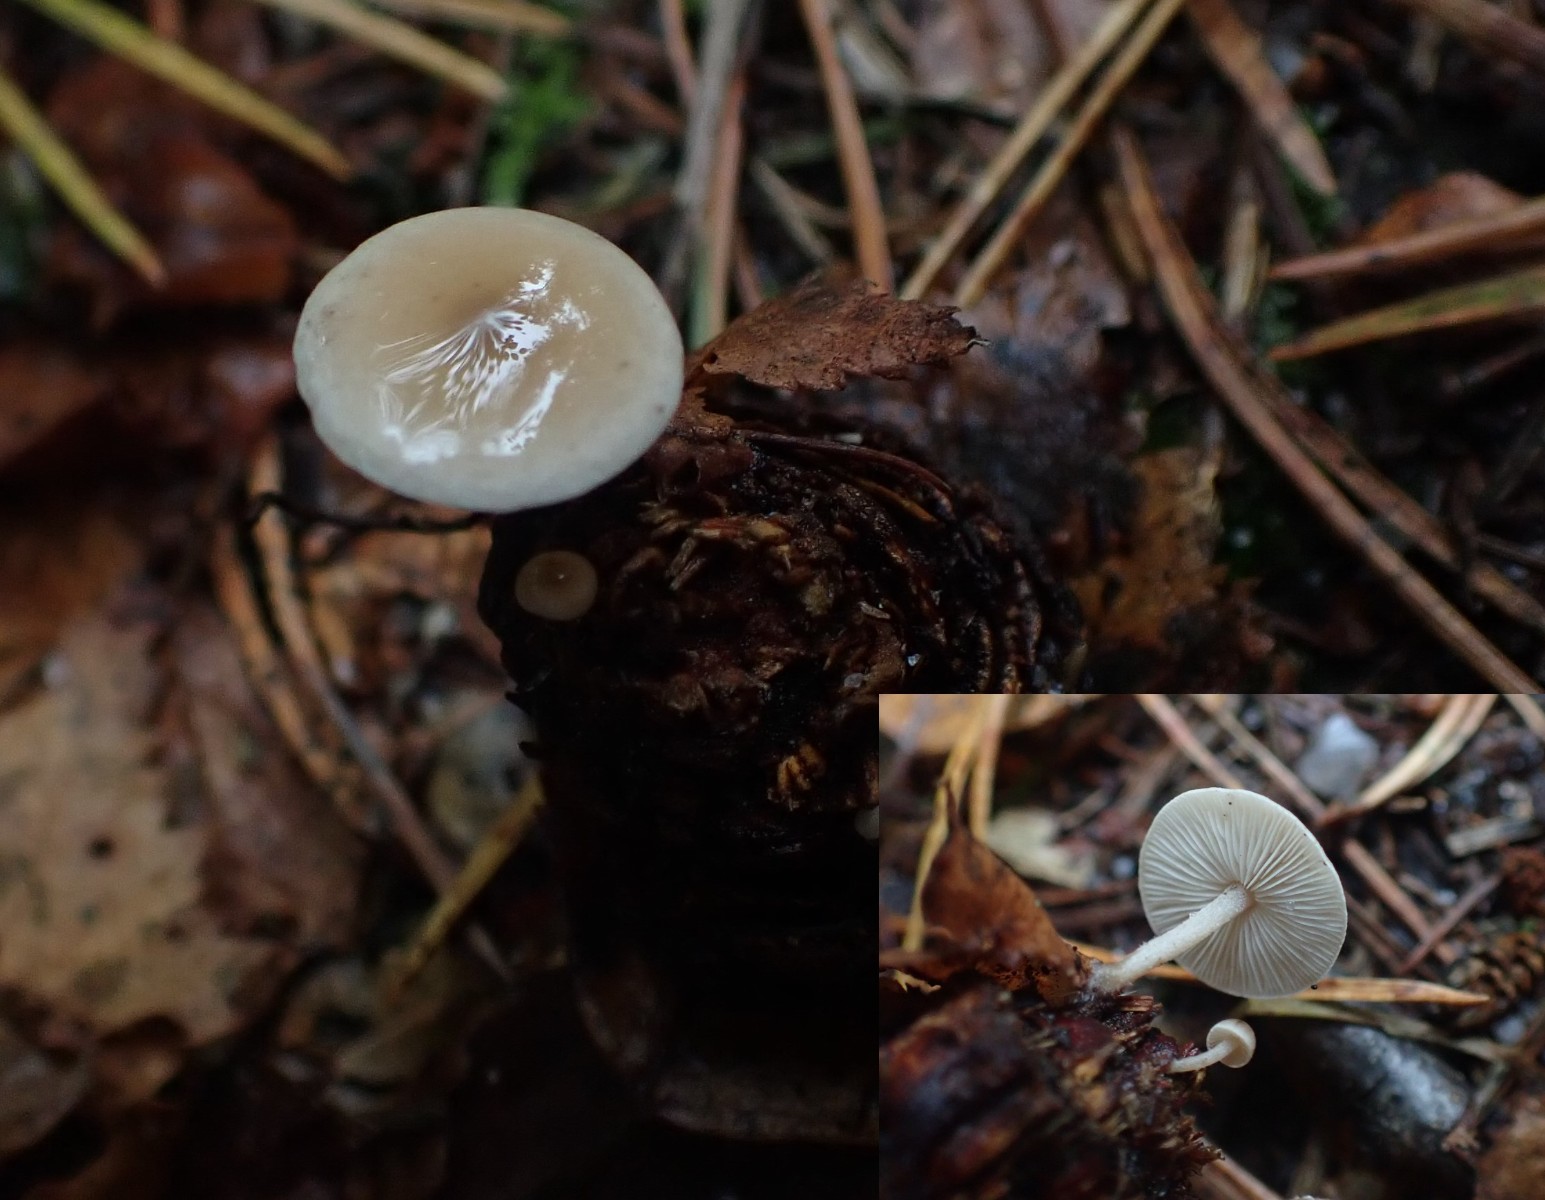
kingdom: Fungi
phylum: Basidiomycota
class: Agaricomycetes
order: Agaricales
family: Marasmiaceae
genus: Baeospora
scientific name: Baeospora myosura
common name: koglebruskhat
